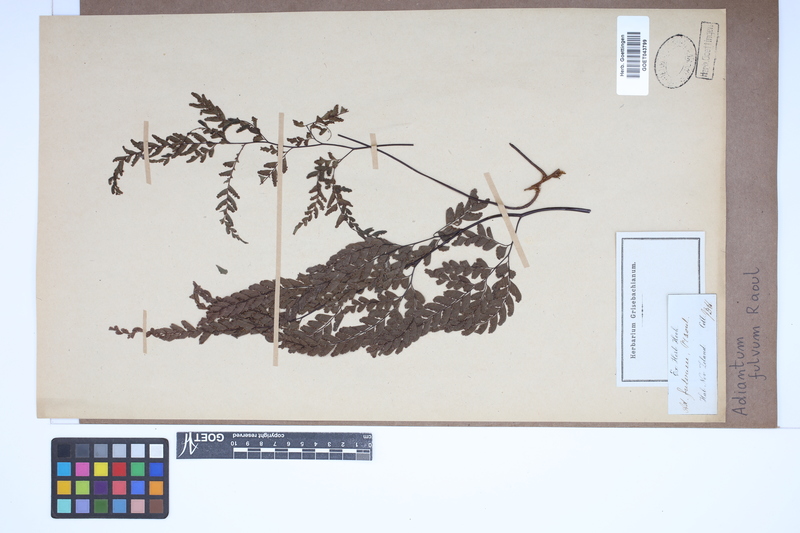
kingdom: Plantae
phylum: Tracheophyta
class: Polypodiopsida
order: Polypodiales
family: Pteridaceae
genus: Adiantum
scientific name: Adiantum fulvum
